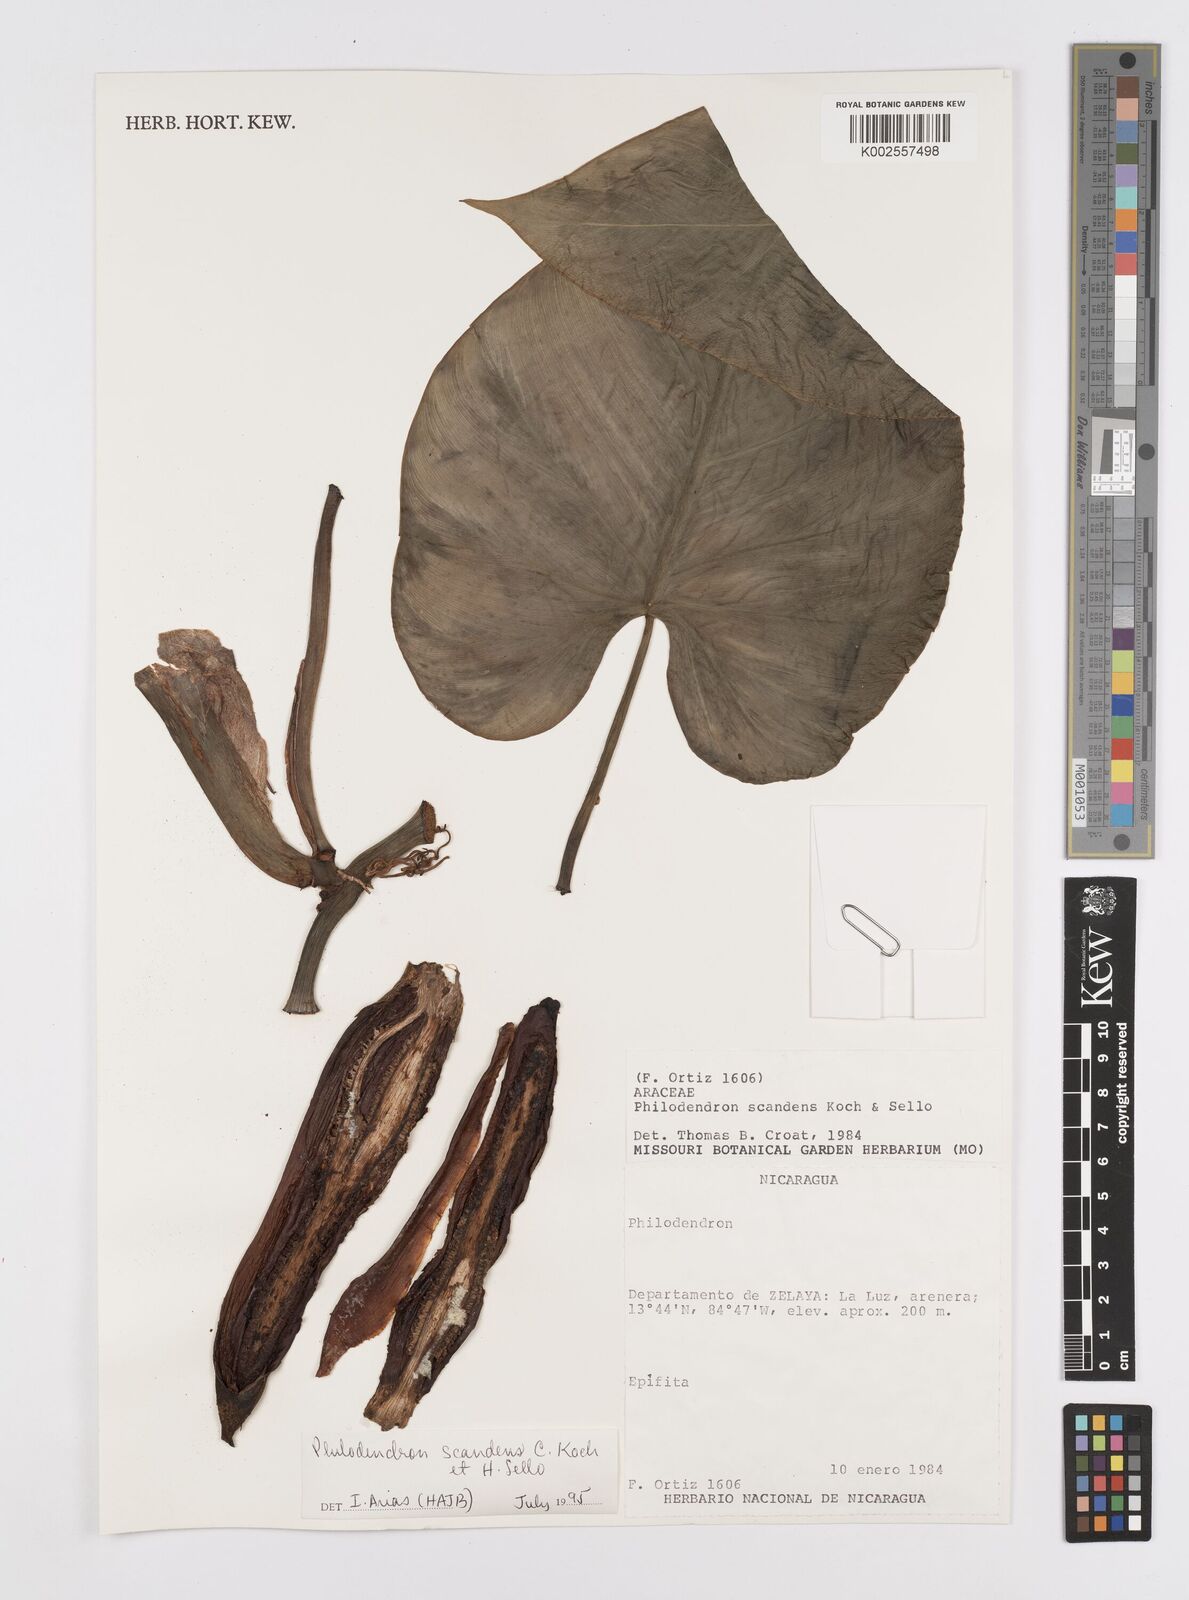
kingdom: Plantae
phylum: Tracheophyta
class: Liliopsida
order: Alismatales
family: Araceae
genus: Philodendron
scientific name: Philodendron hederaceum
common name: Vilevine
